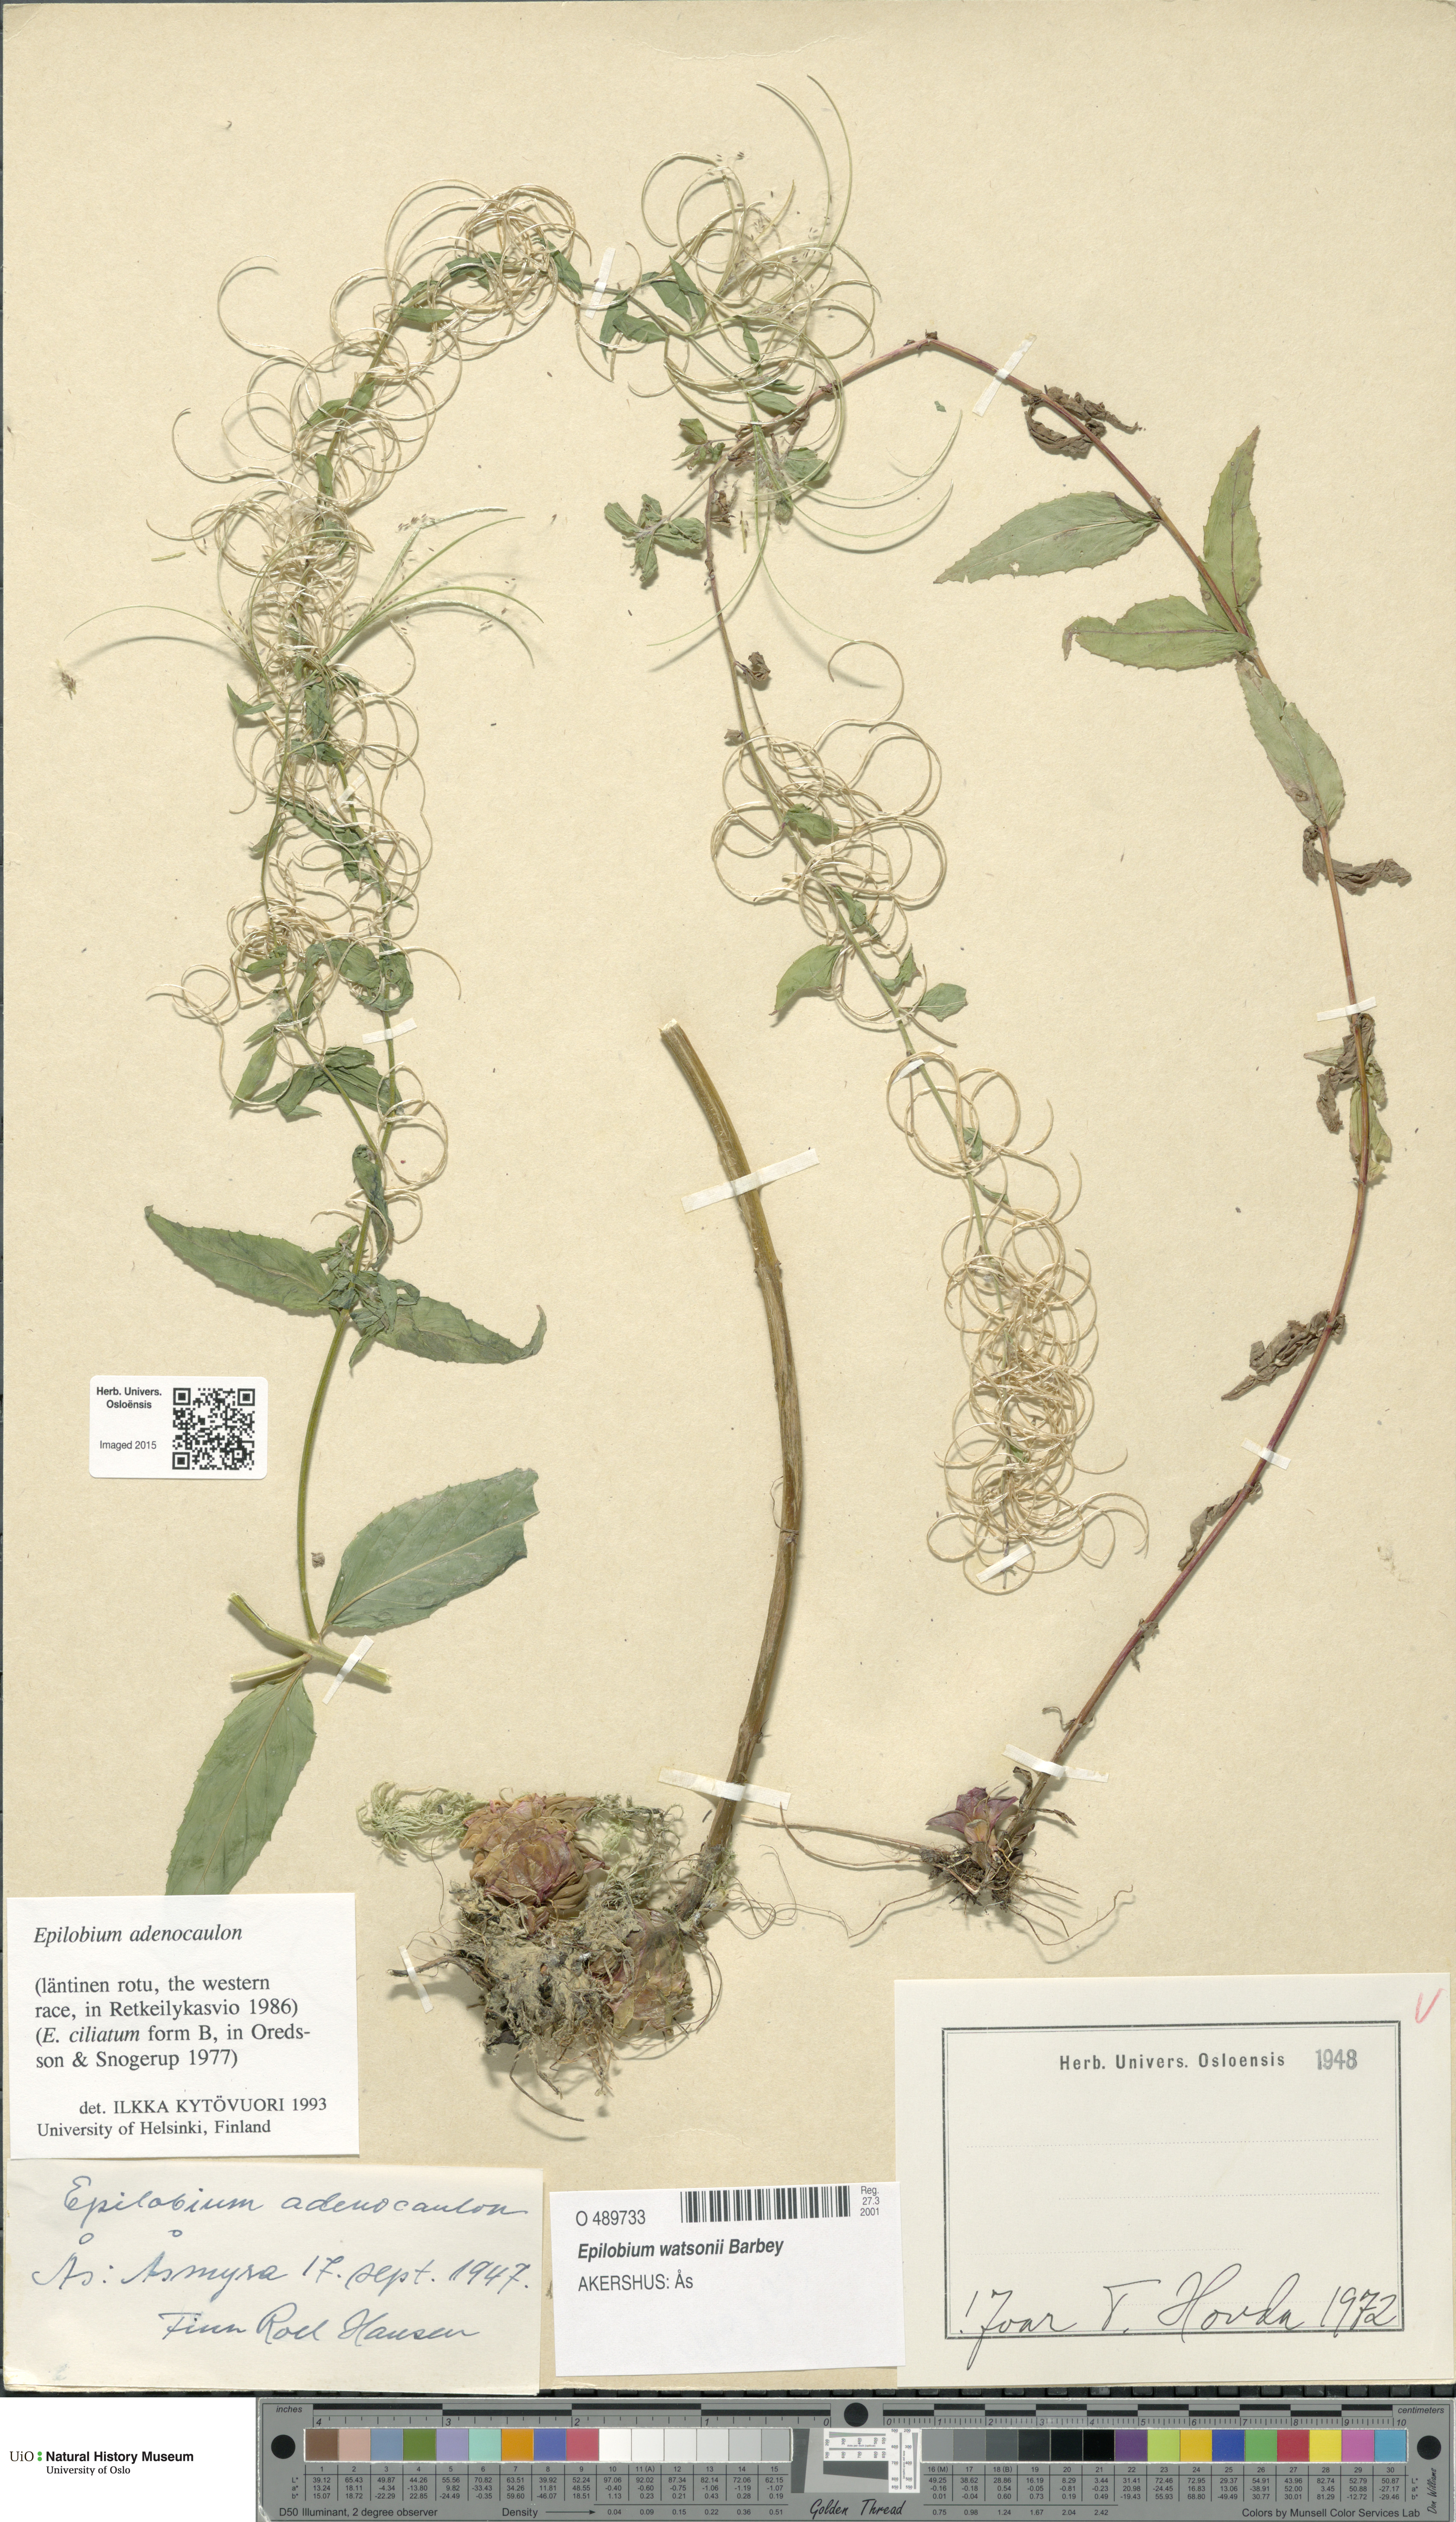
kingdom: Plantae
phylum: Tracheophyta
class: Magnoliopsida
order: Myrtales
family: Onagraceae
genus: Epilobium
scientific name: Epilobium ciliatum
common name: American willowherb
